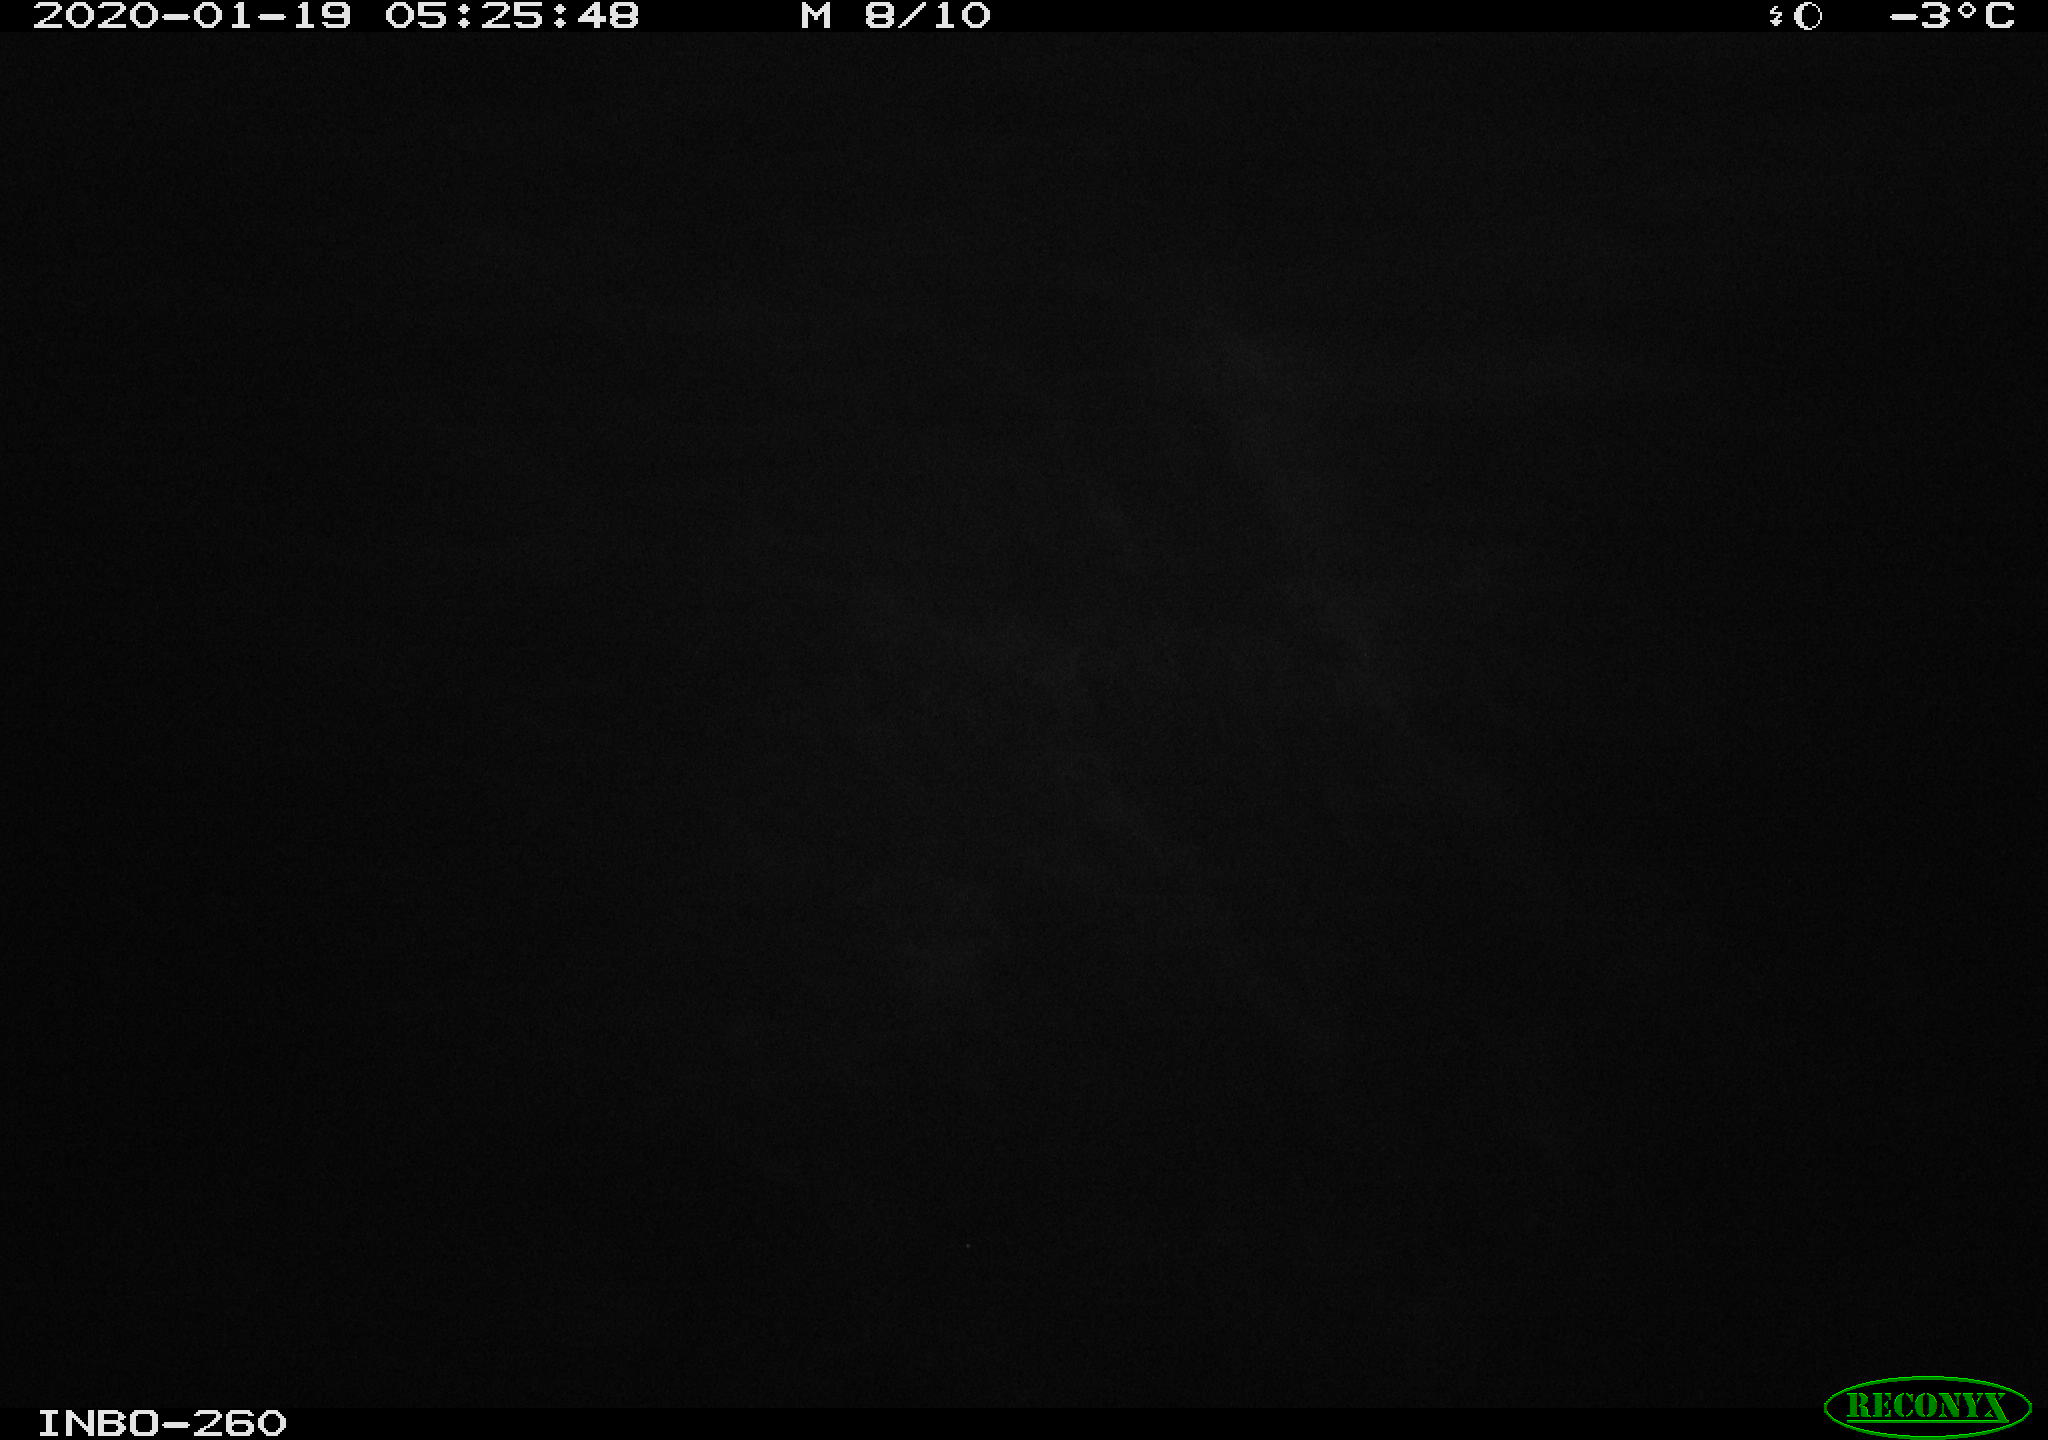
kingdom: Animalia
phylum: Chordata
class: Aves
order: Anseriformes
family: Anatidae
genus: Anas
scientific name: Anas platyrhynchos
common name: Mallard
